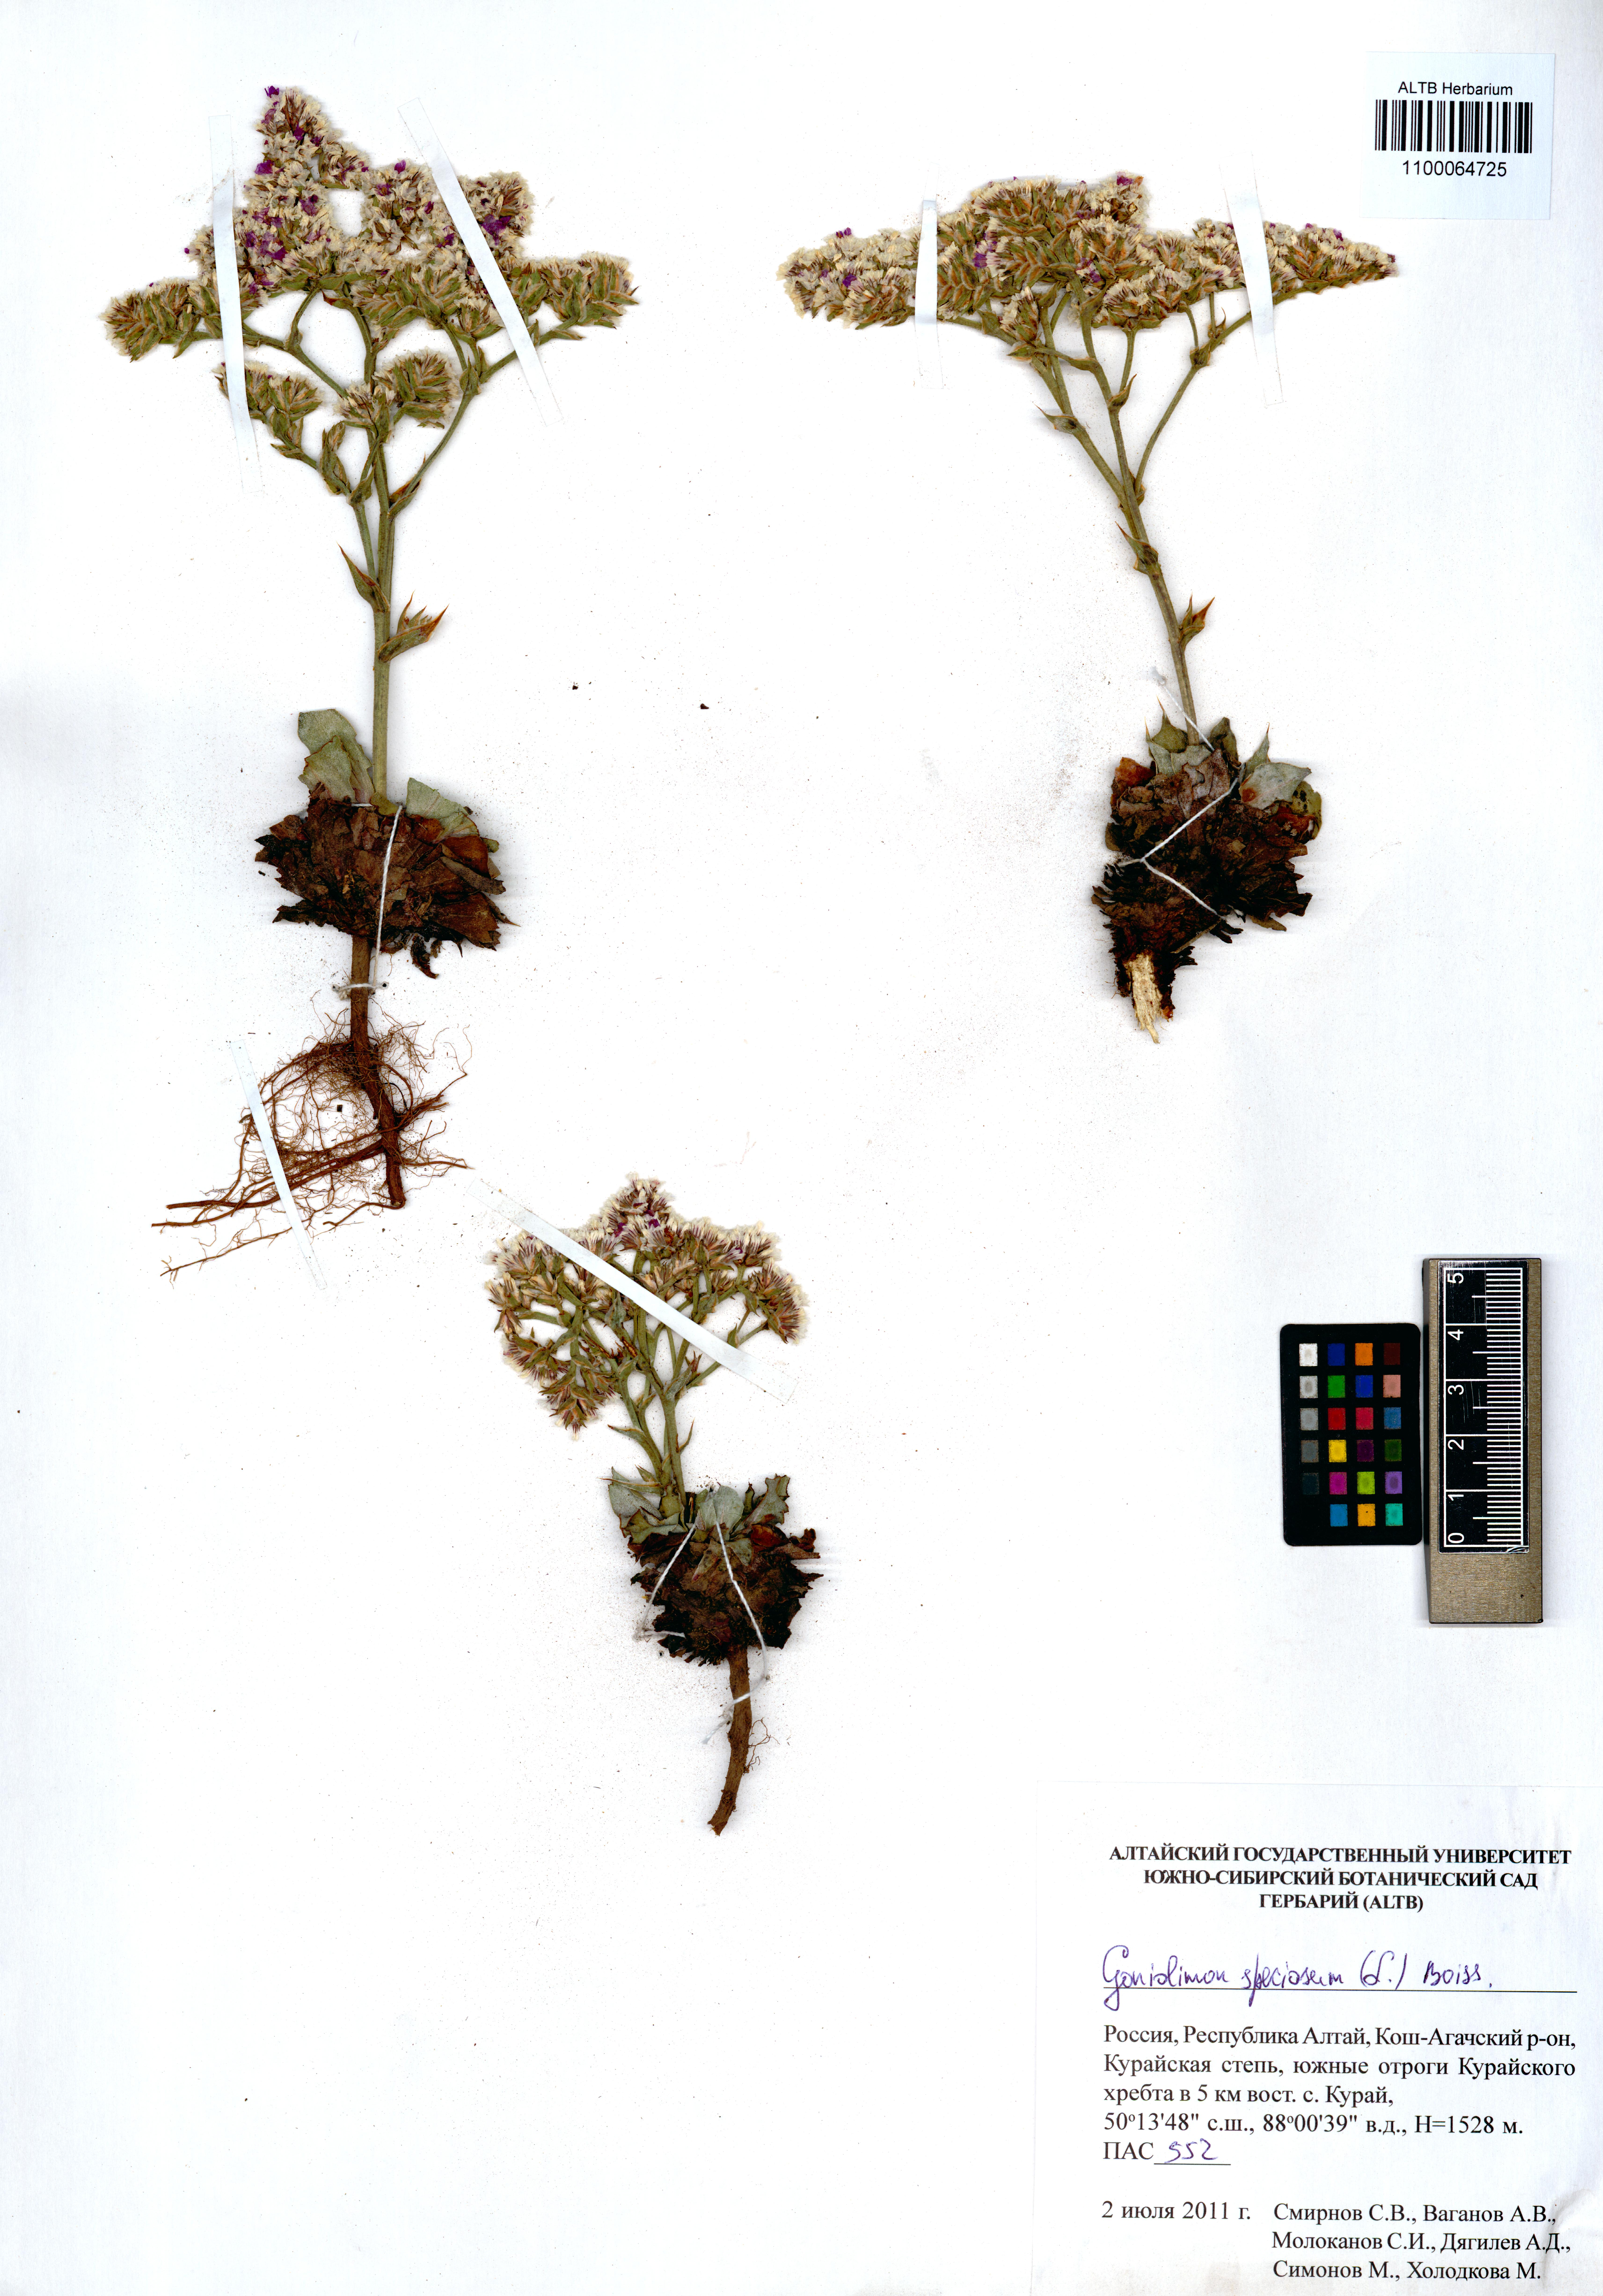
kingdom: Plantae
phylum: Tracheophyta
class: Magnoliopsida
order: Caryophyllales
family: Plumbaginaceae
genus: Goniolimon
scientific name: Goniolimon speciosum
